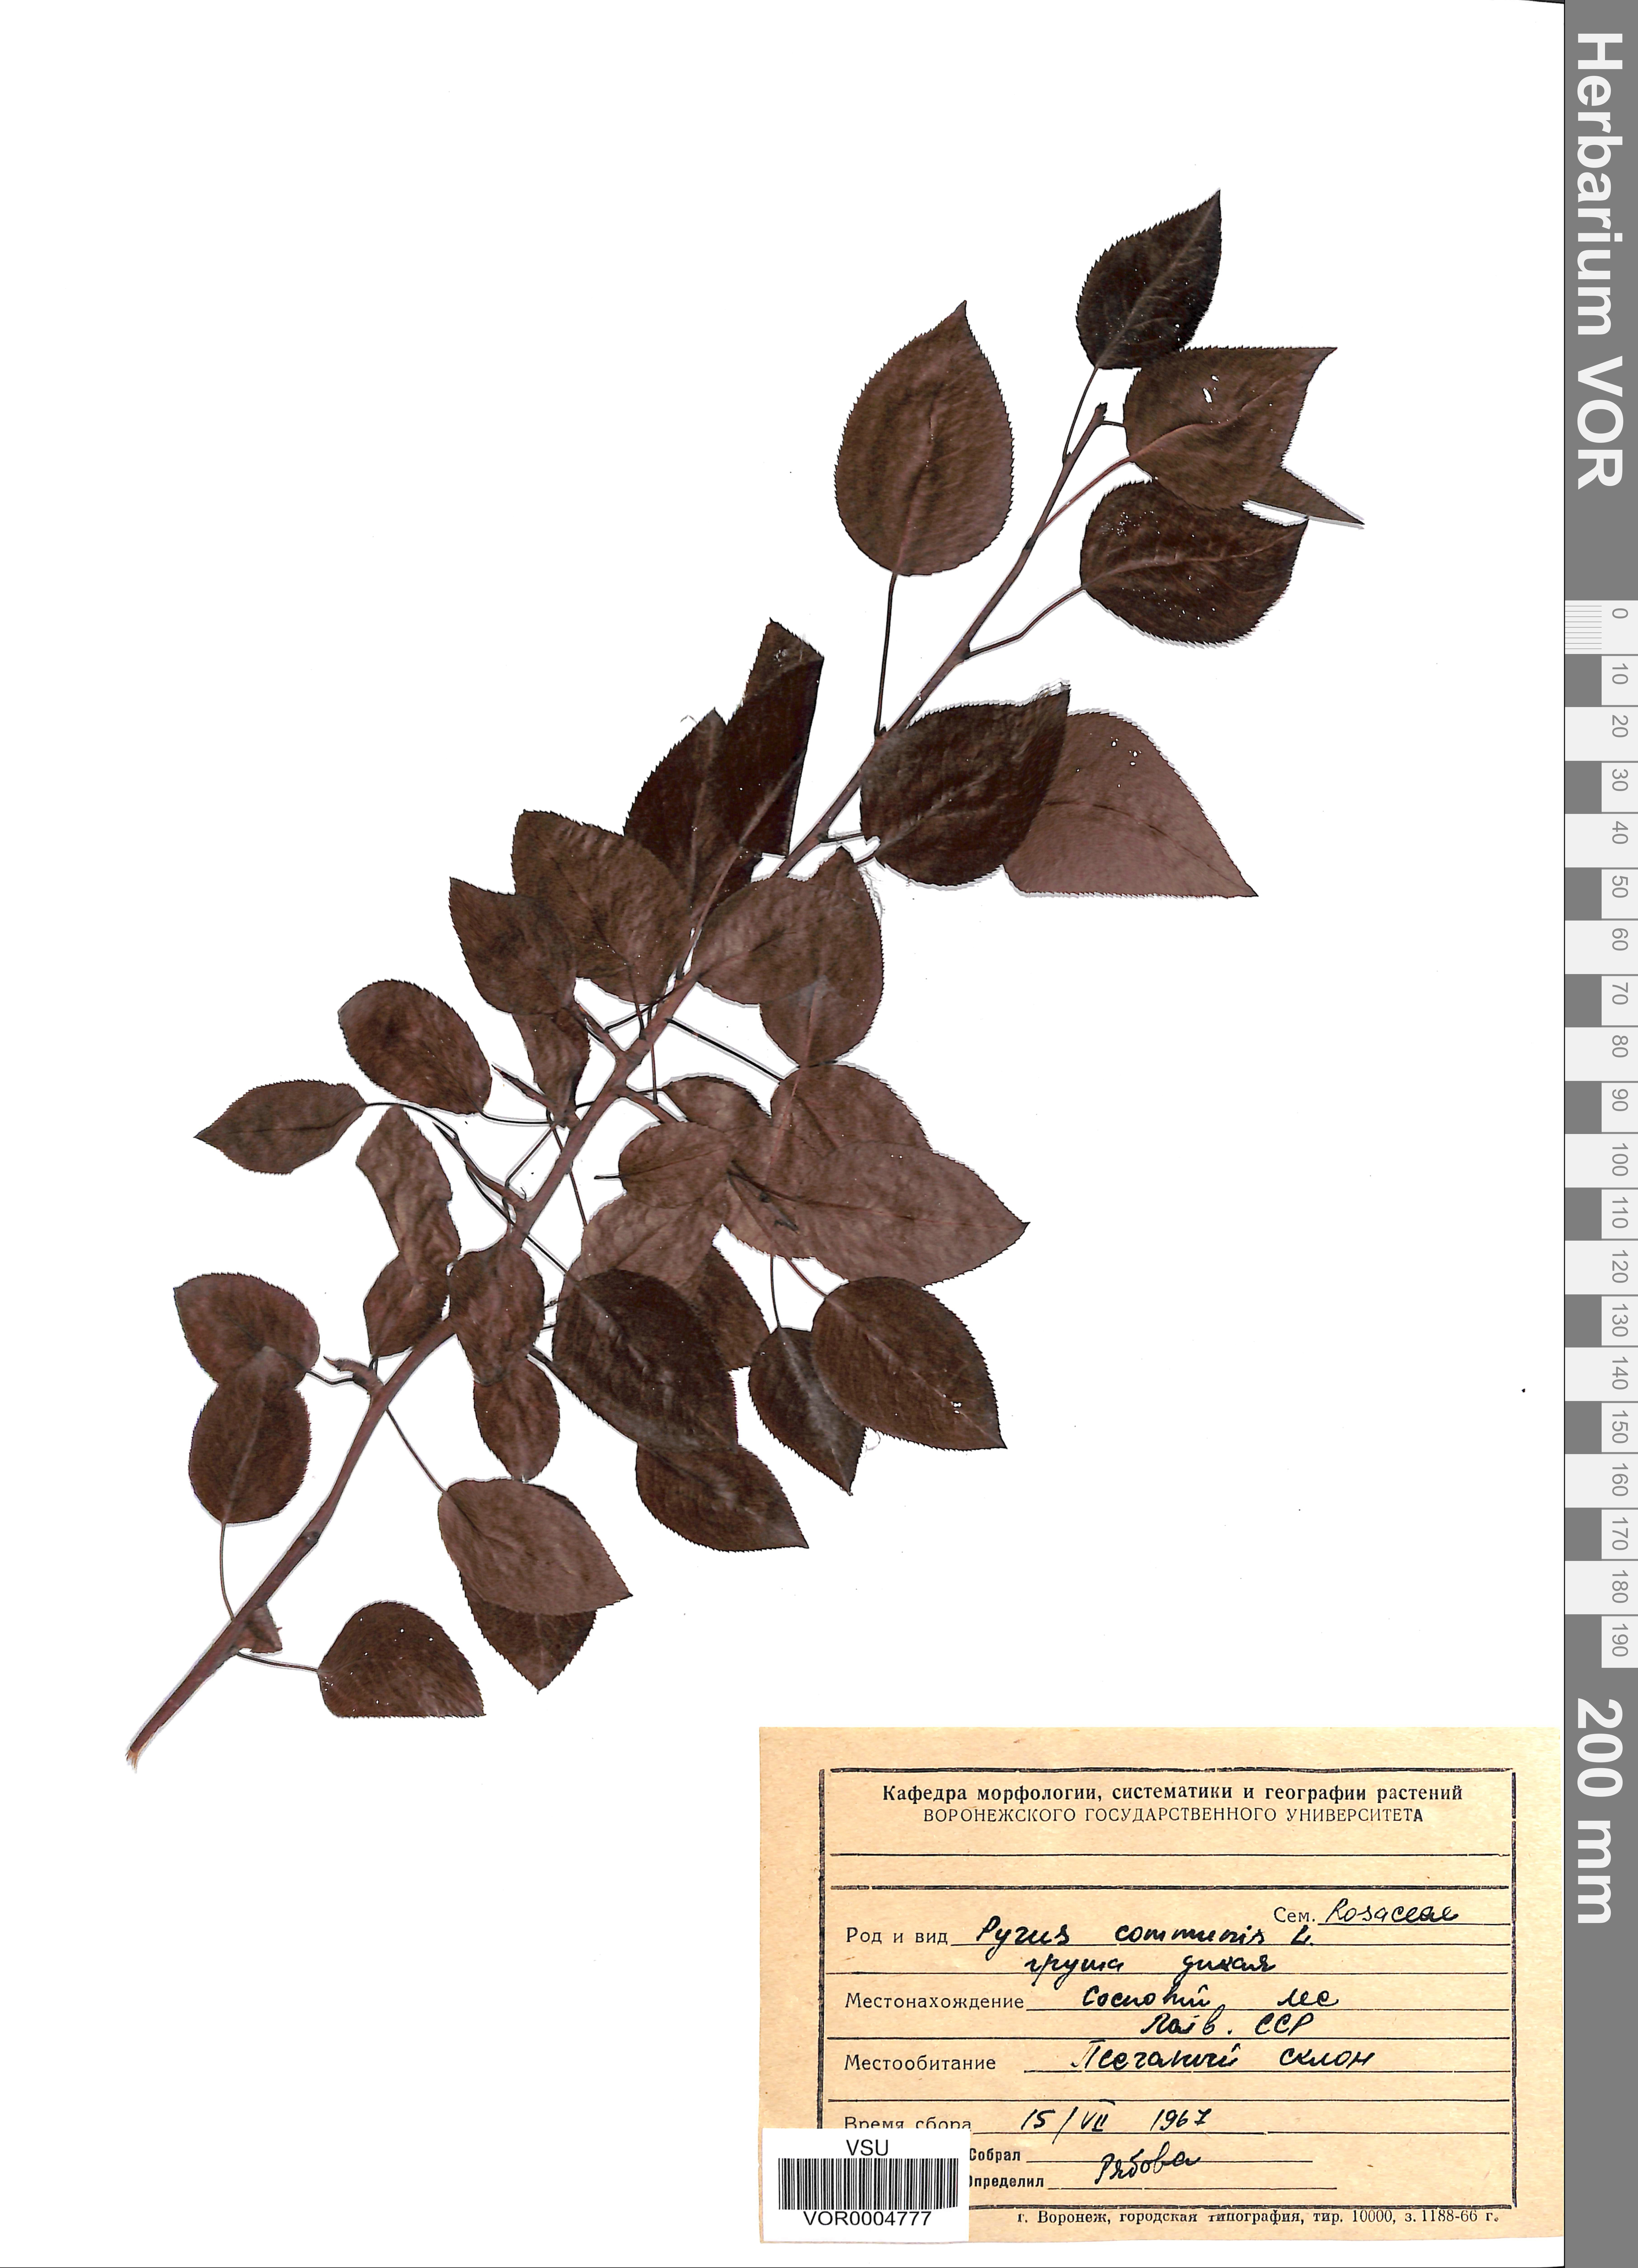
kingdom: Plantae
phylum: Tracheophyta
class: Magnoliopsida
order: Rosales
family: Rosaceae
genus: Pyrus
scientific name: Pyrus communis
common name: Pear
